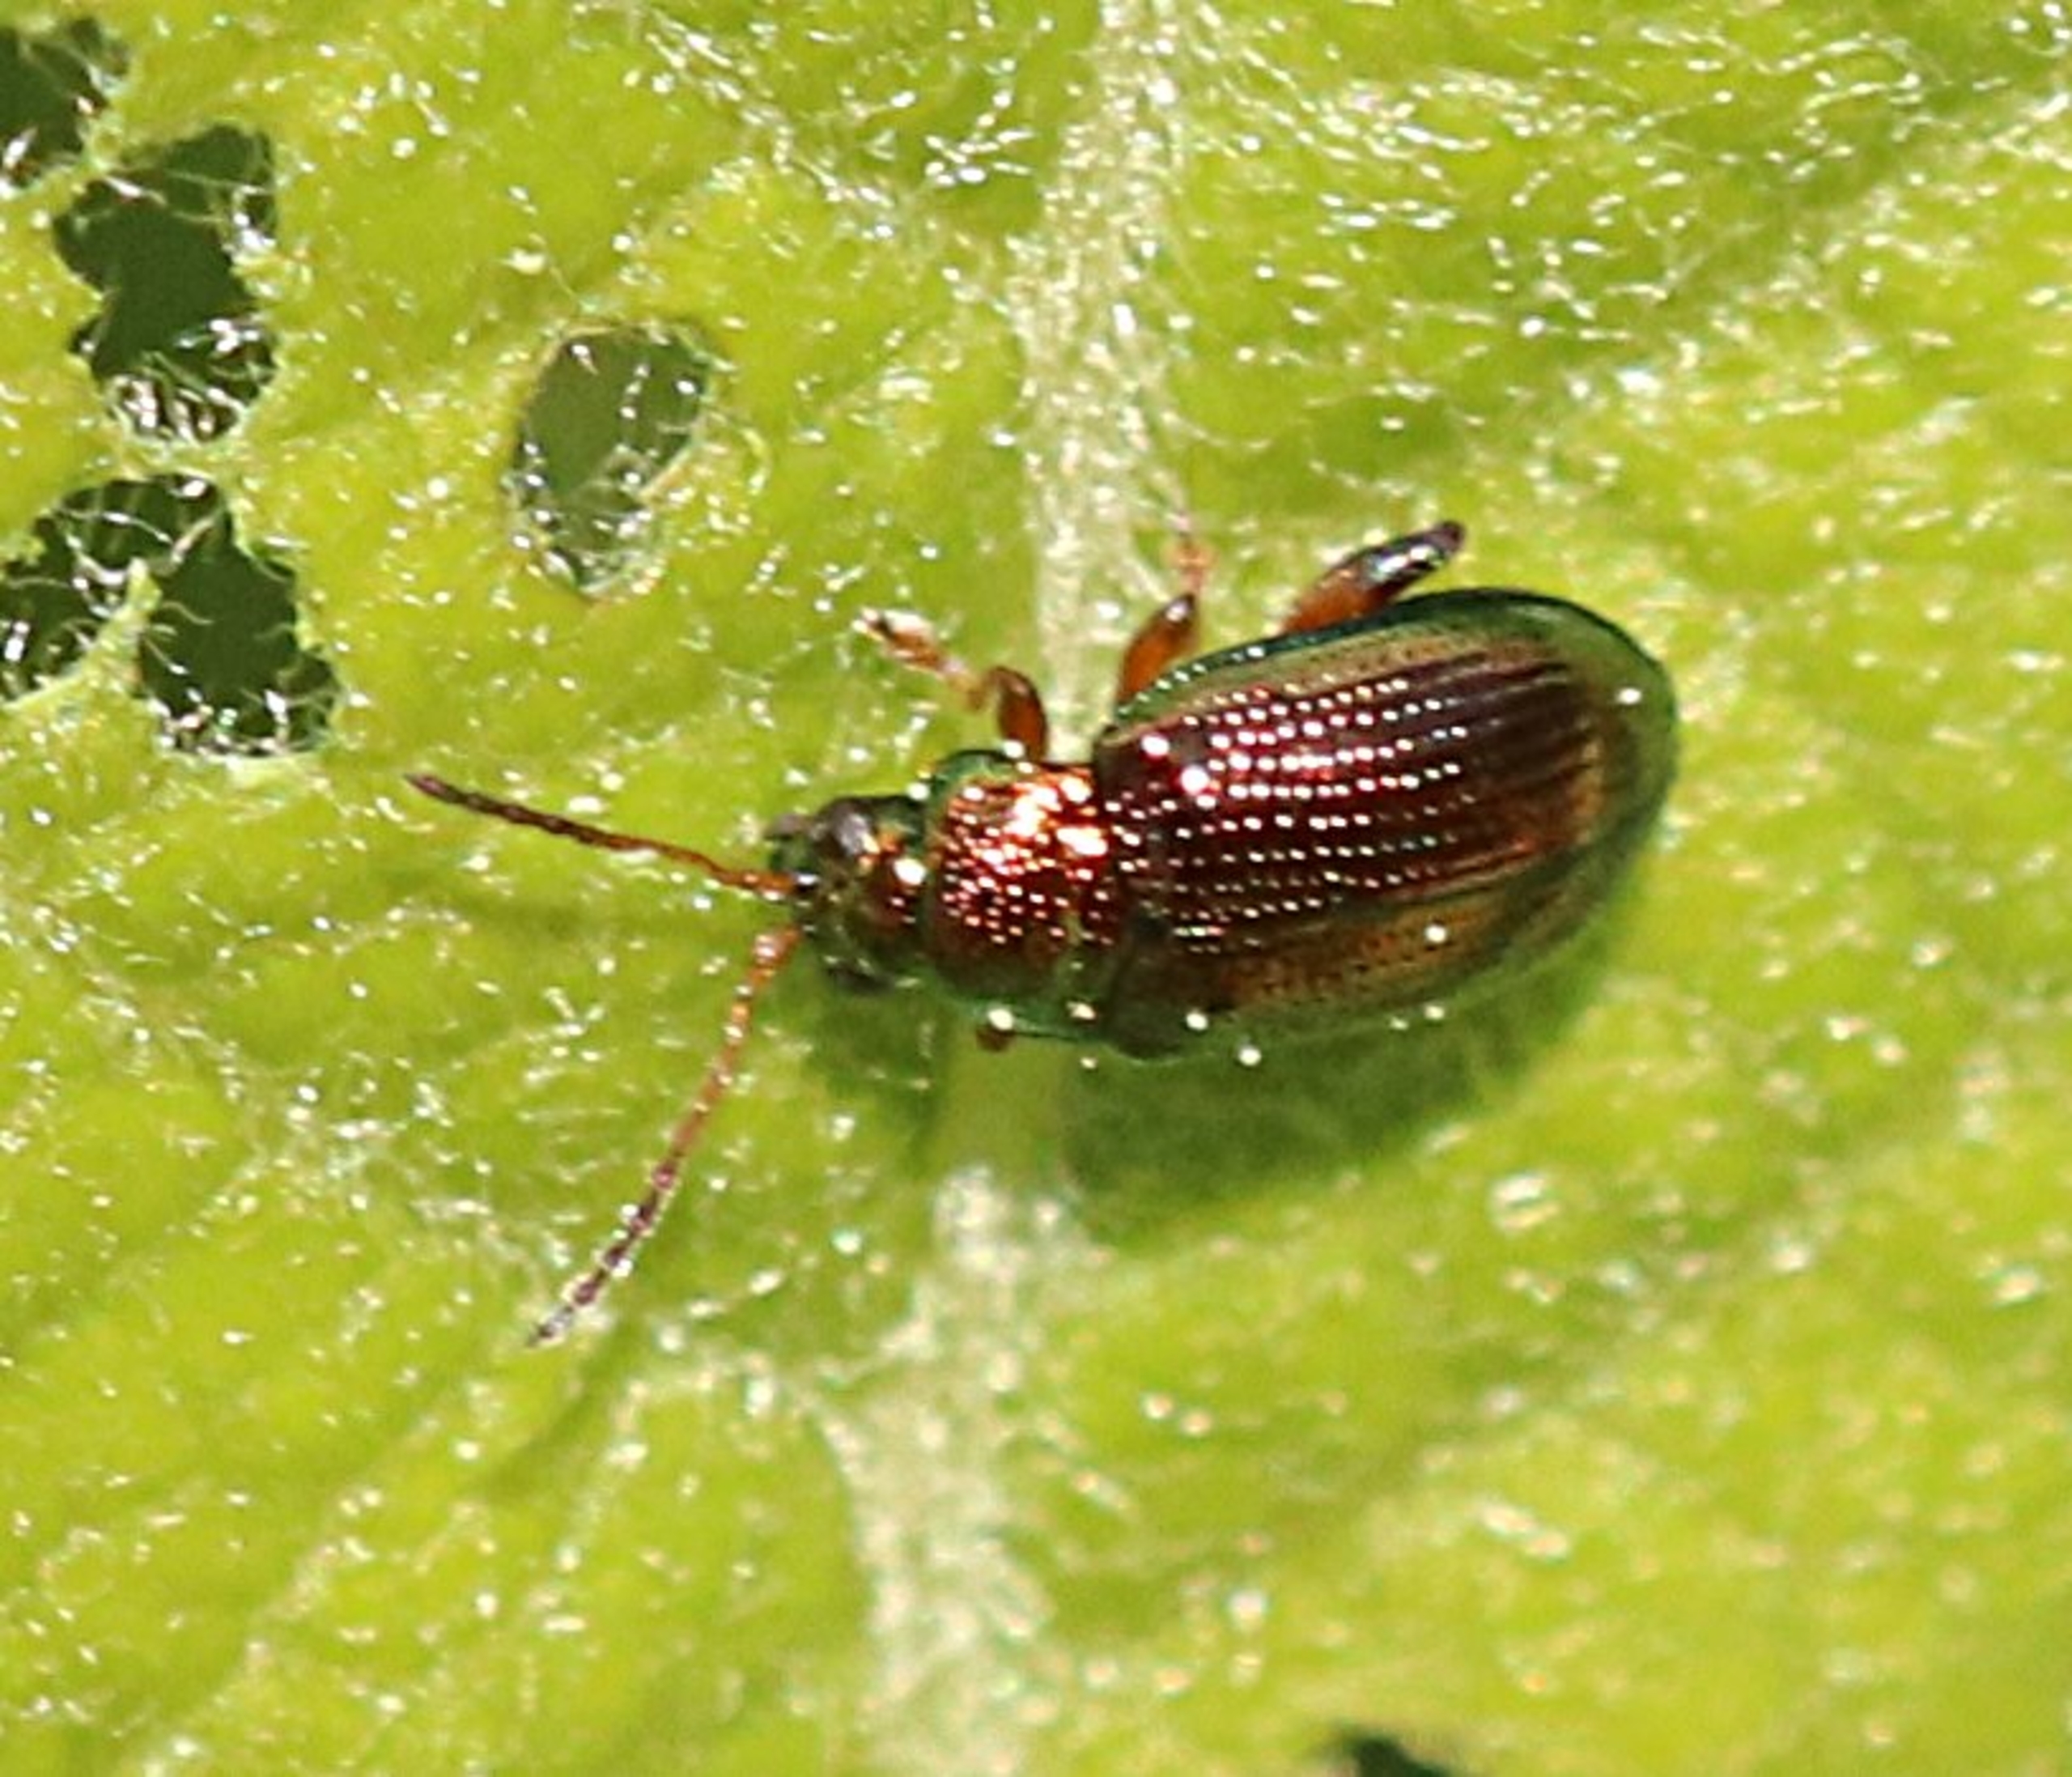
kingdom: Animalia
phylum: Arthropoda
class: Insecta
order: Coleoptera
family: Chrysomelidae
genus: Crepidodera
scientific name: Crepidodera fulvicornis
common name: Lille pilejordloppe
